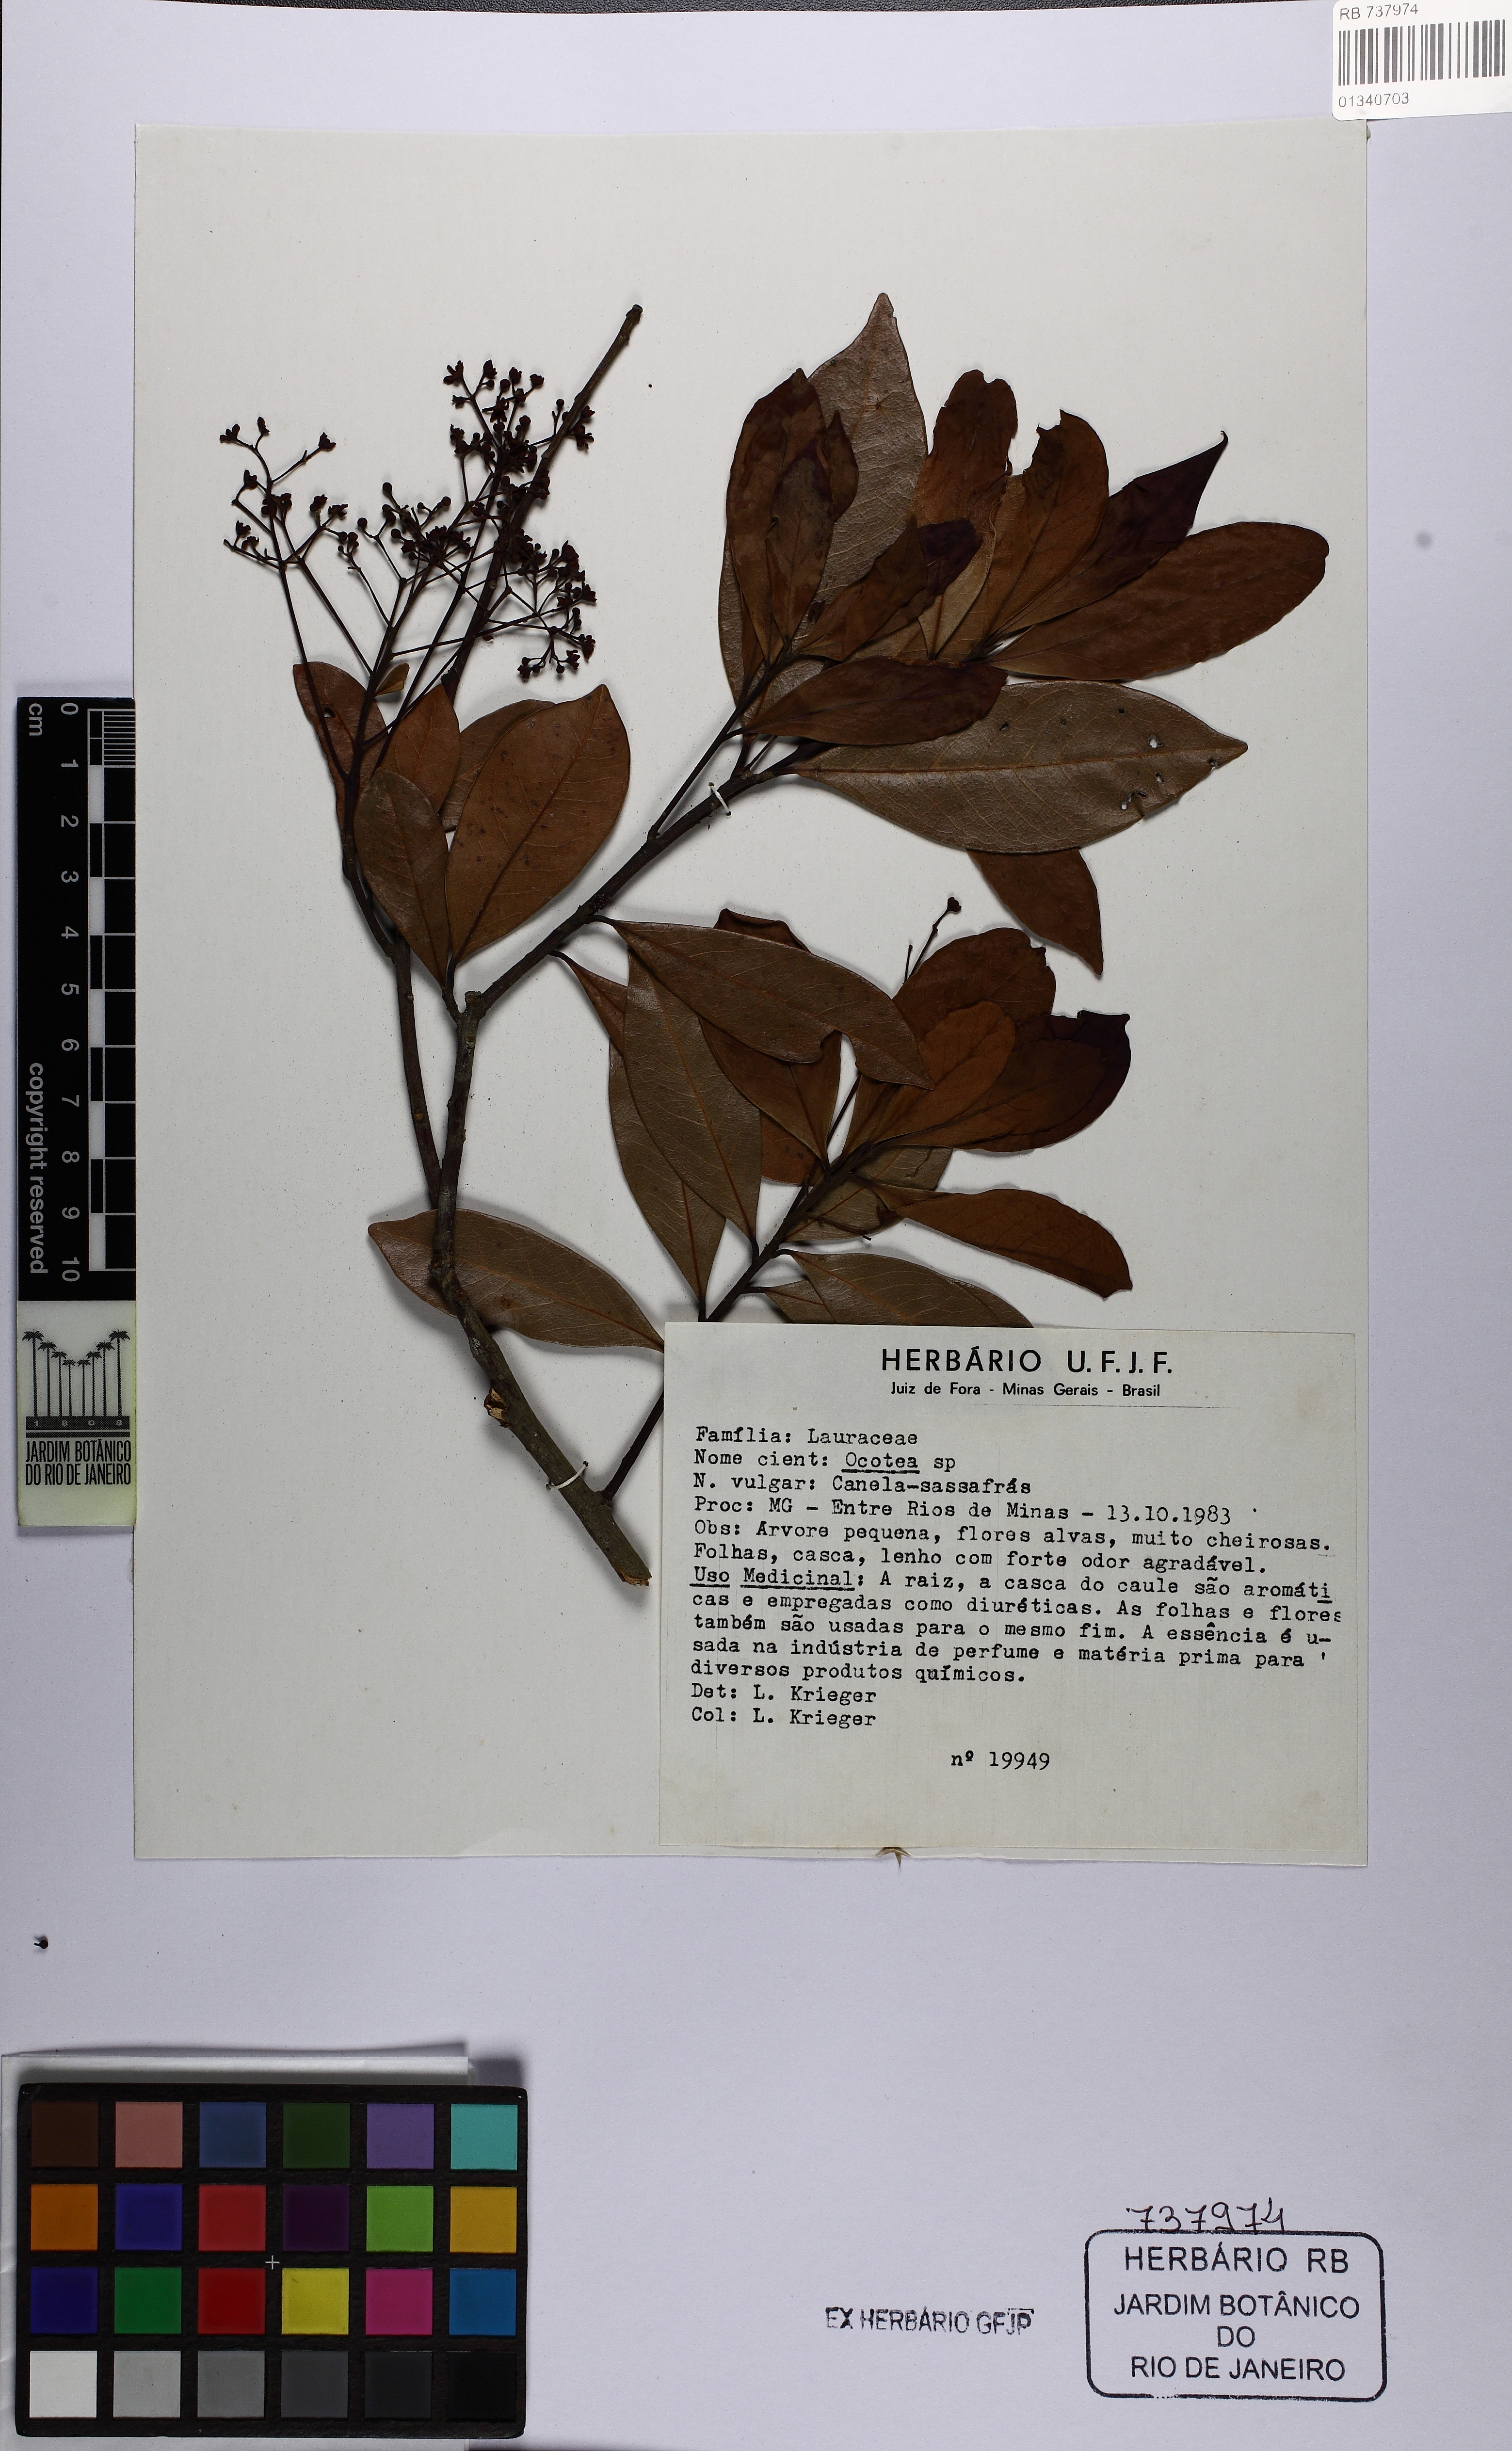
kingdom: Plantae
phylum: Tracheophyta
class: Magnoliopsida
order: Laurales
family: Lauraceae
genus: Ocotea
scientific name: Ocotea
